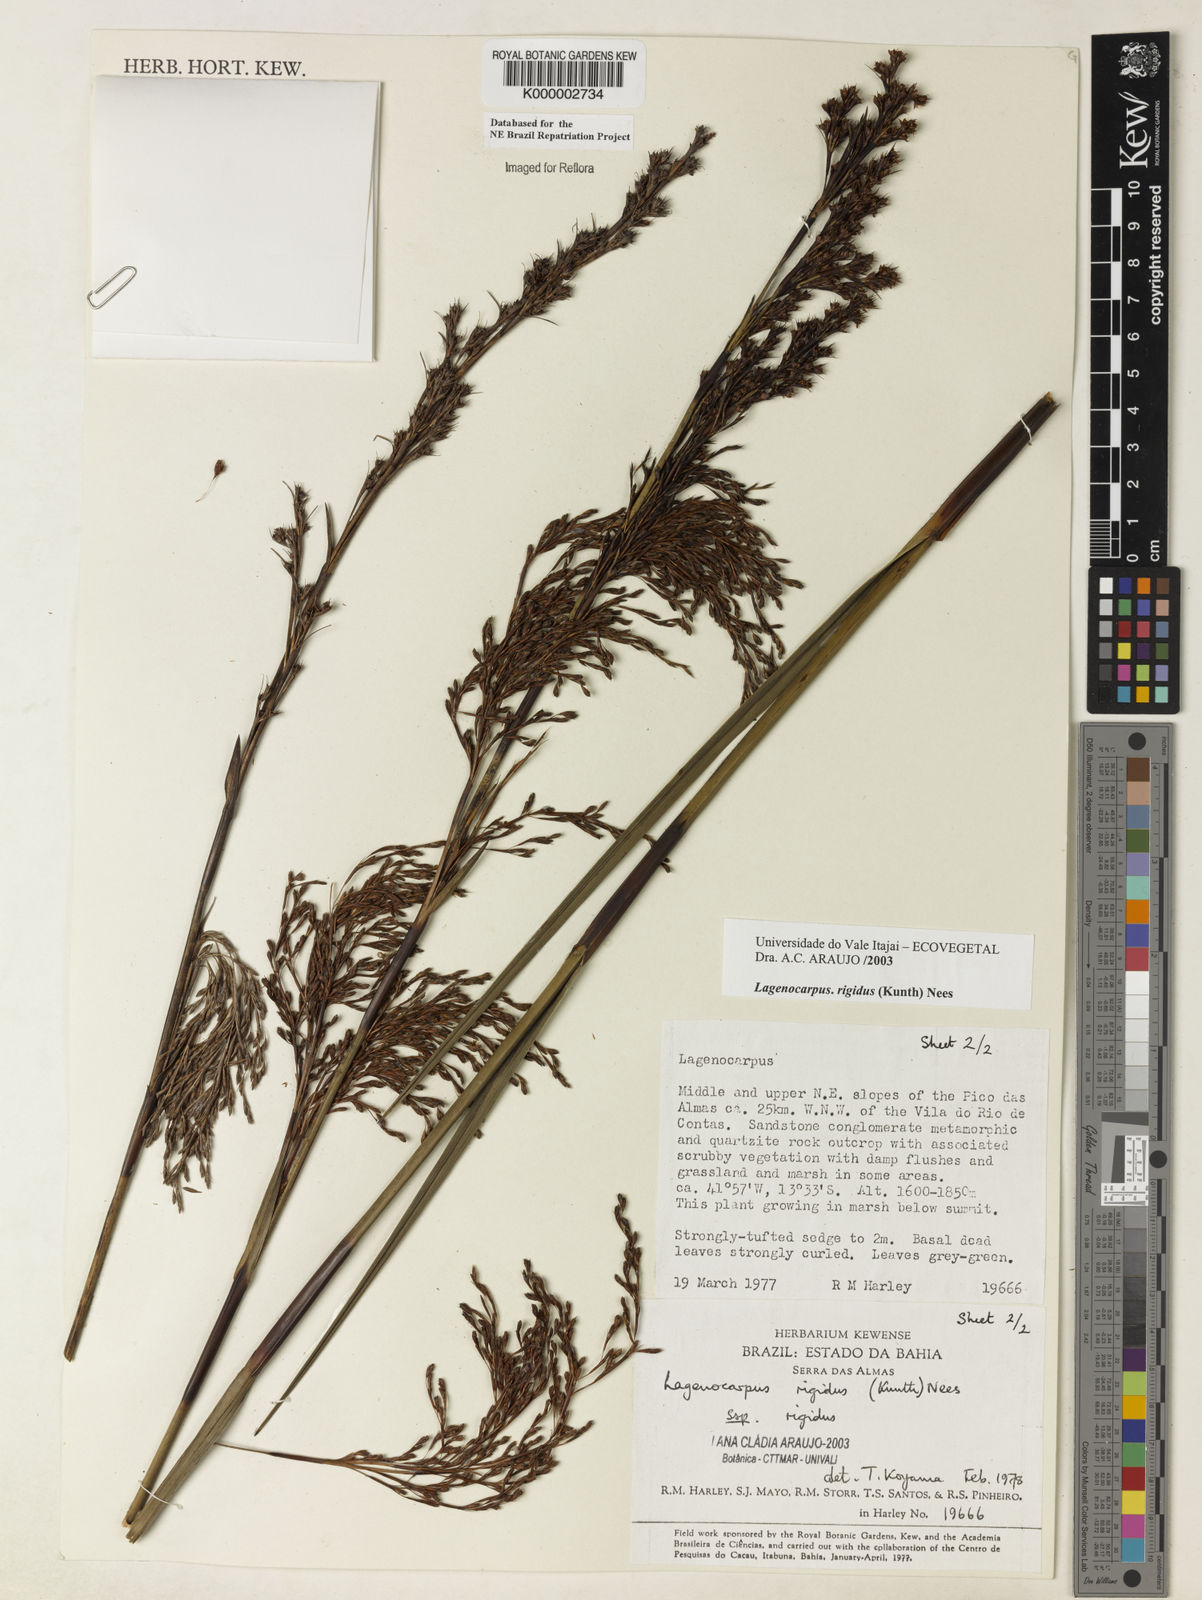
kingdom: Plantae
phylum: Tracheophyta
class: Liliopsida
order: Poales
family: Cyperaceae
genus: Lagenocarpus
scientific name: Lagenocarpus rigidus
